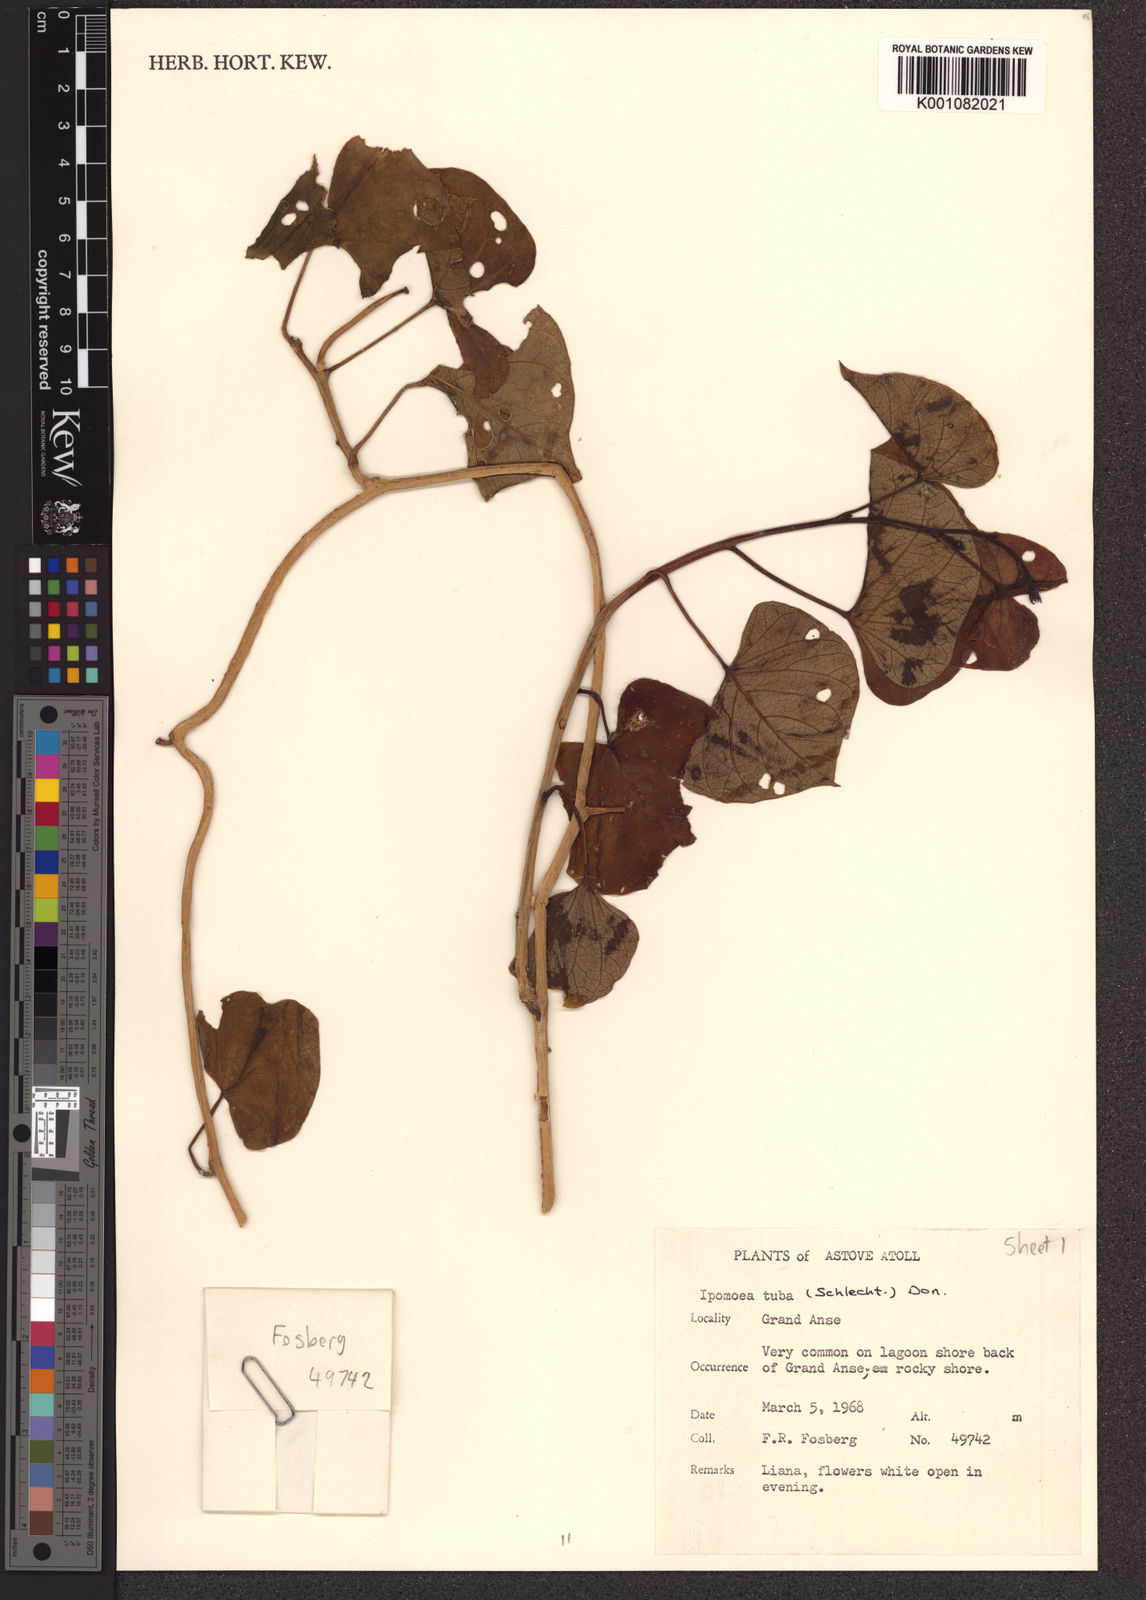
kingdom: Plantae
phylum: Tracheophyta
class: Magnoliopsida
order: Solanales
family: Convolvulaceae
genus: Ipomoea
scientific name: Ipomoea violacea
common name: Beach moonflower
